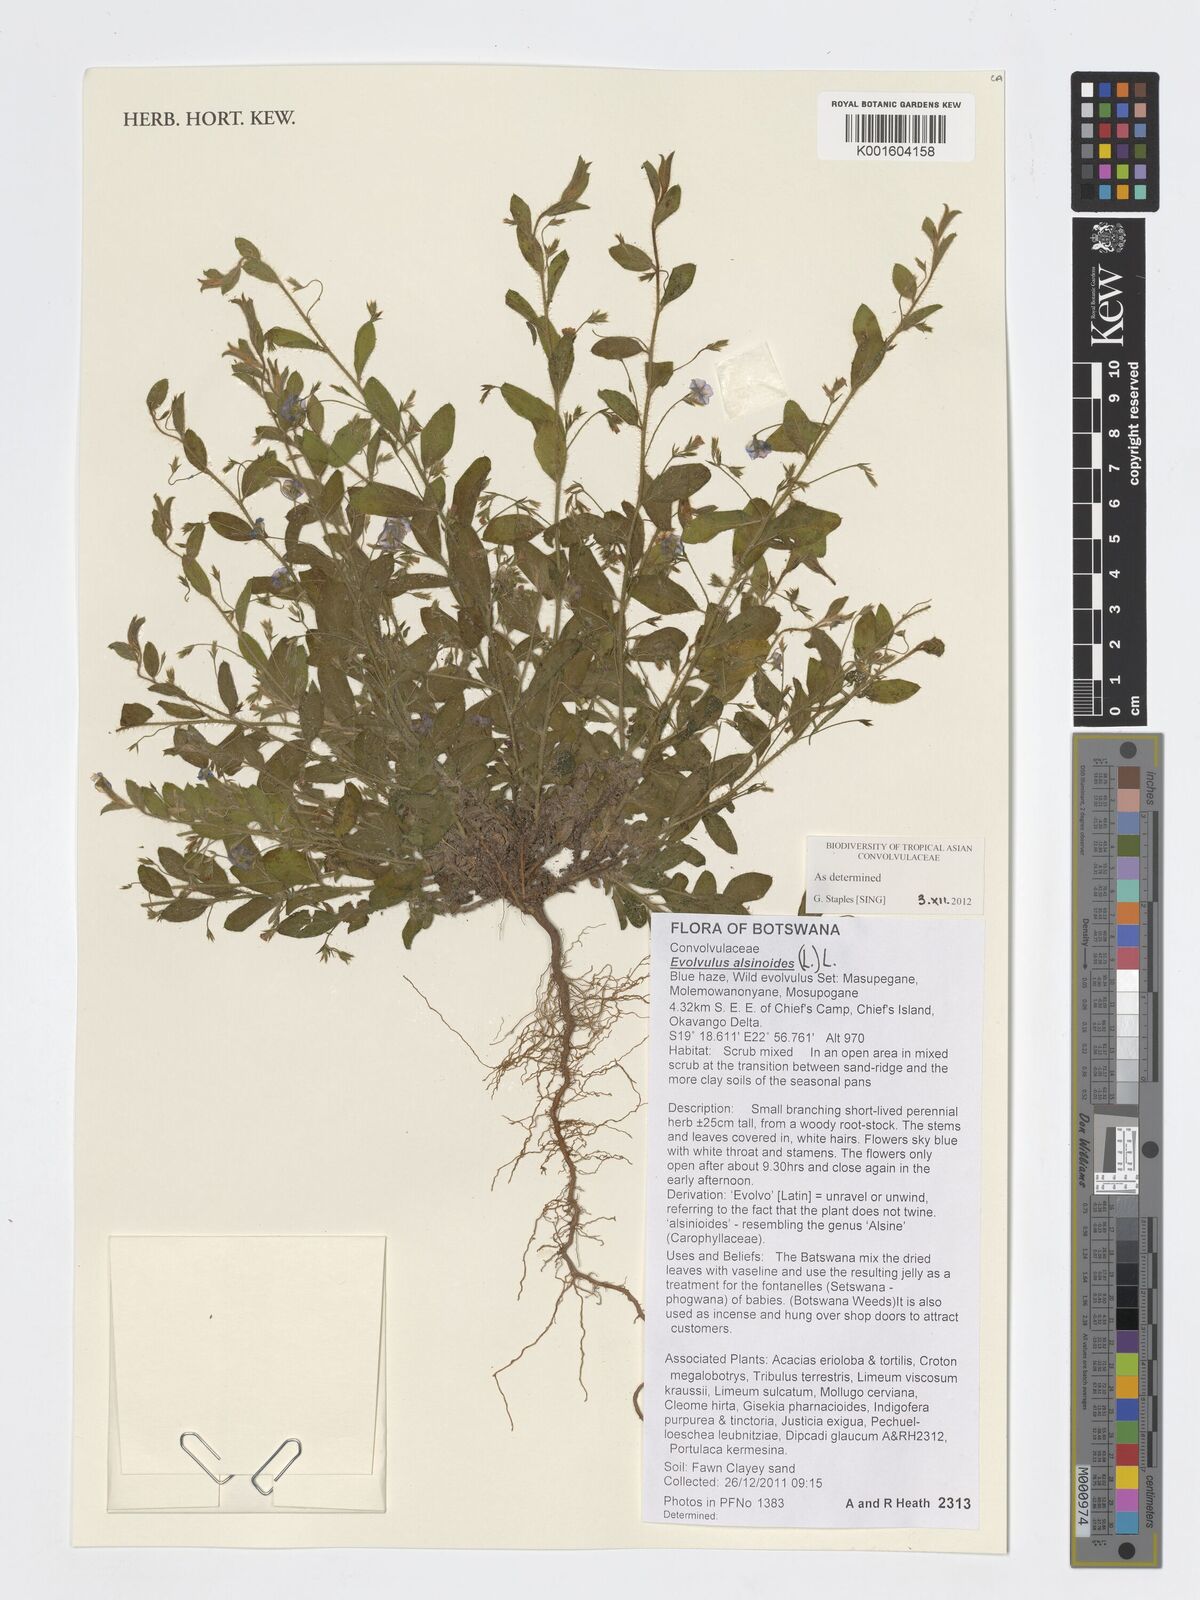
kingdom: Plantae
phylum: Tracheophyta
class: Magnoliopsida
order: Solanales
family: Convolvulaceae
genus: Evolvulus
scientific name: Evolvulus alsinoides
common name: Slender dwarf morning-glory
